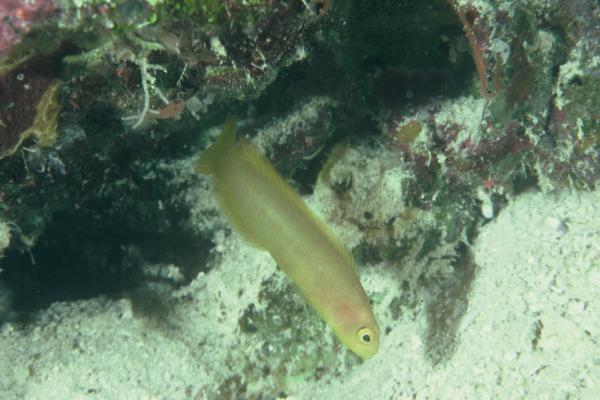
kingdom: Animalia
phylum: Chordata
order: Perciformes
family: Pseudochromidae
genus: Pseudoplesiops
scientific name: Pseudoplesiops
